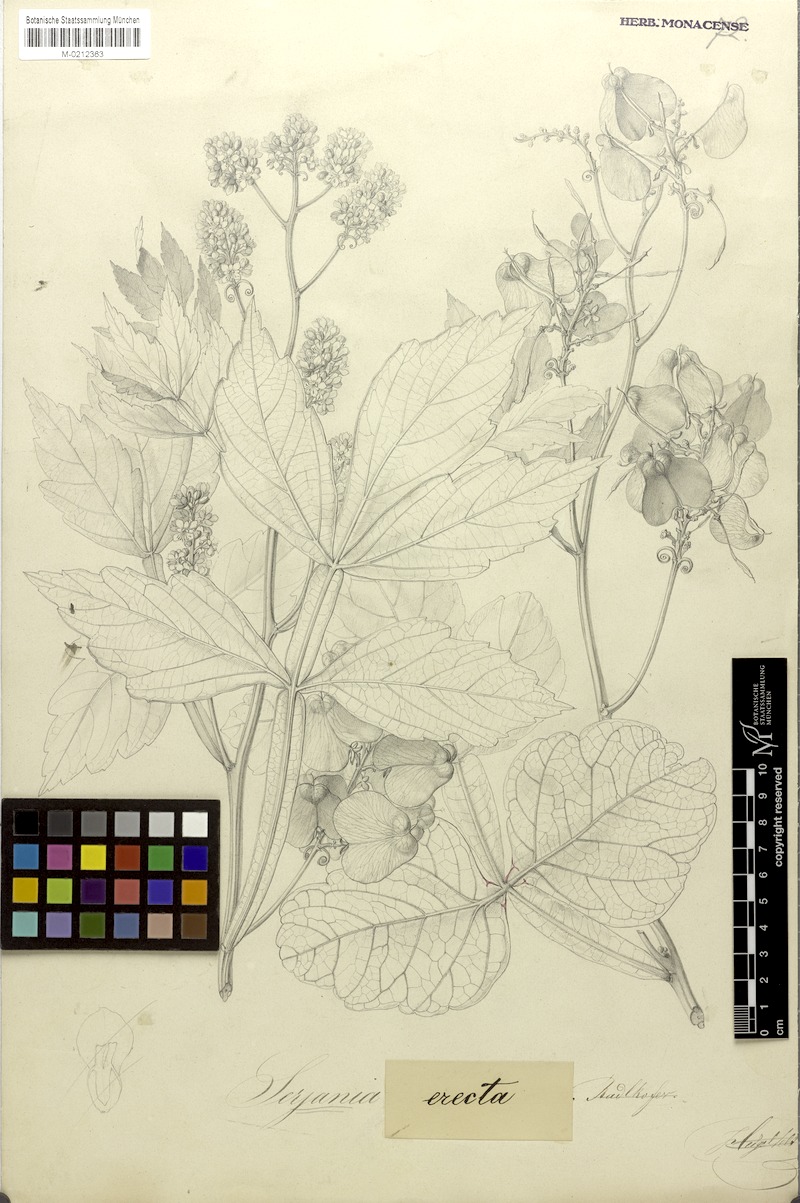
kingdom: Plantae
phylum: Tracheophyta
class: Magnoliopsida
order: Sapindales
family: Sapindaceae
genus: Serjania
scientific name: Serjania erecta
